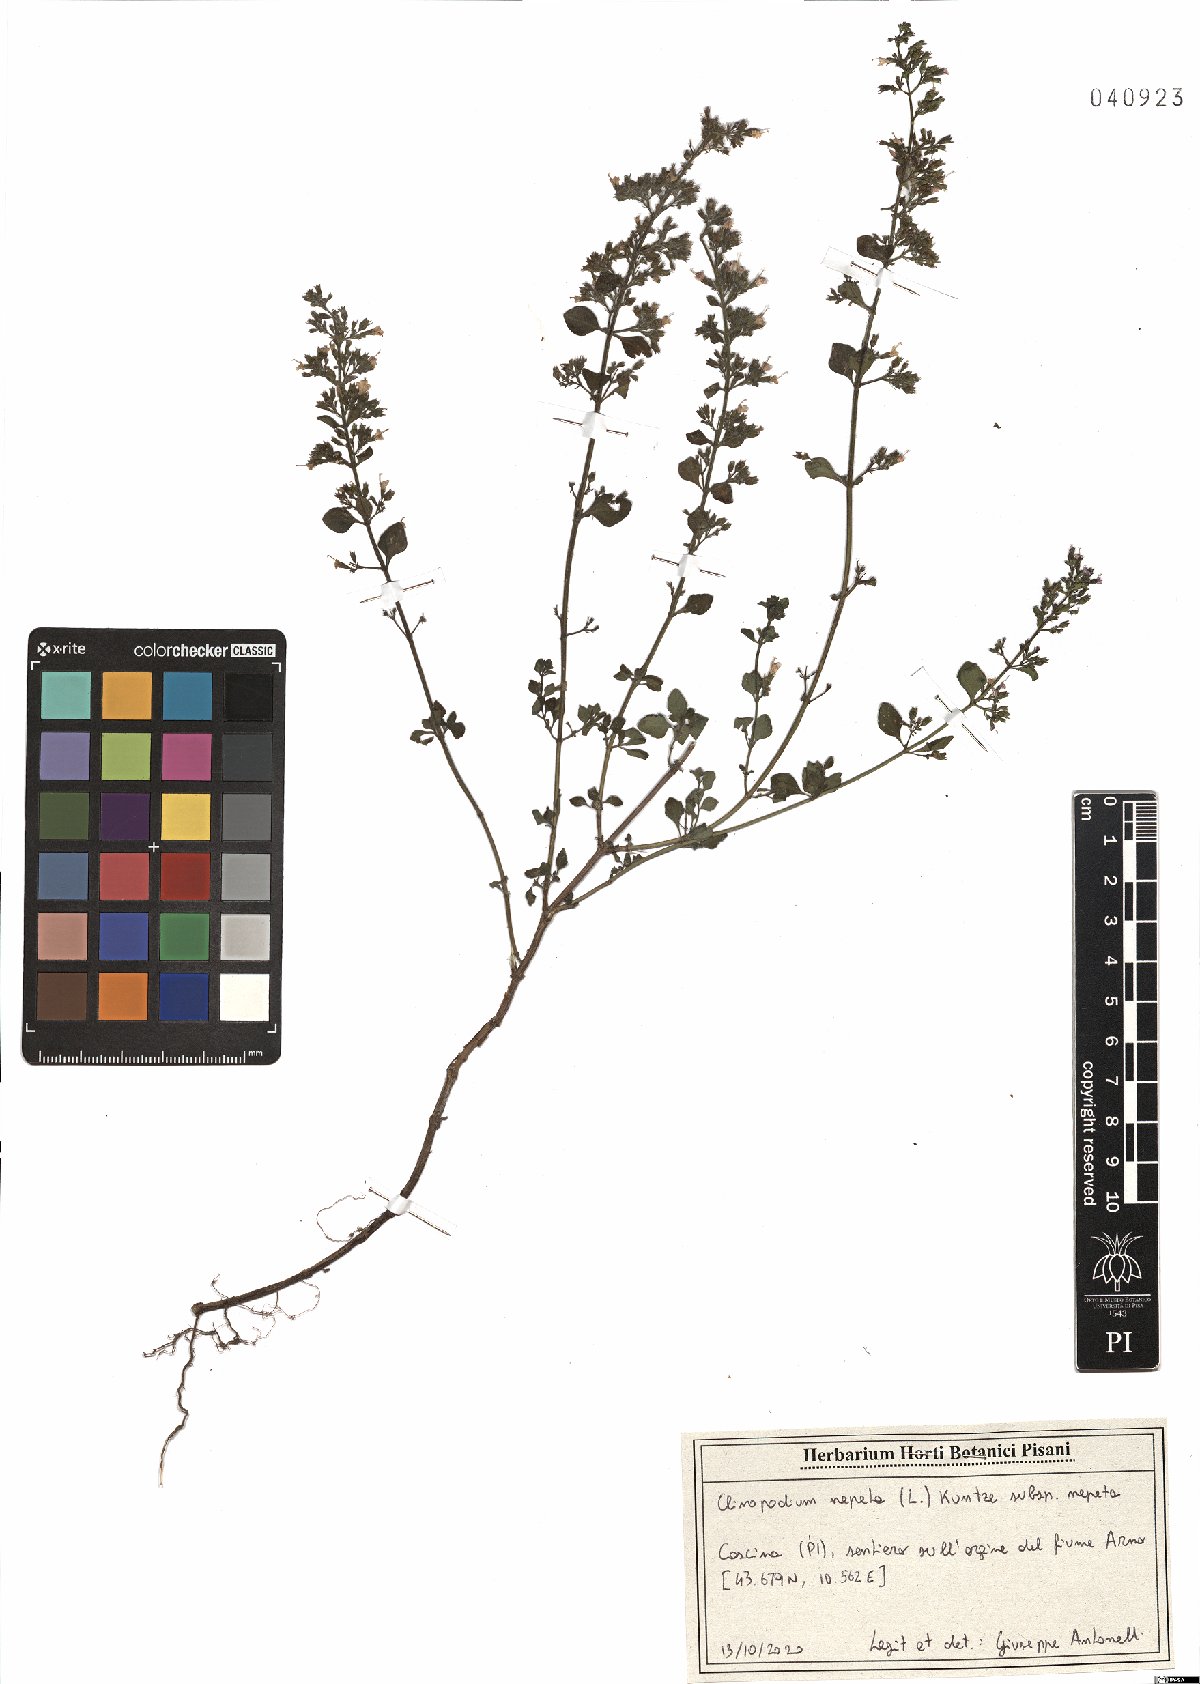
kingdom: Plantae
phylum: Tracheophyta
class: Magnoliopsida
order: Lamiales
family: Lamiaceae
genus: Clinopodium
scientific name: Clinopodium nepeta
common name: Lesser calamint
